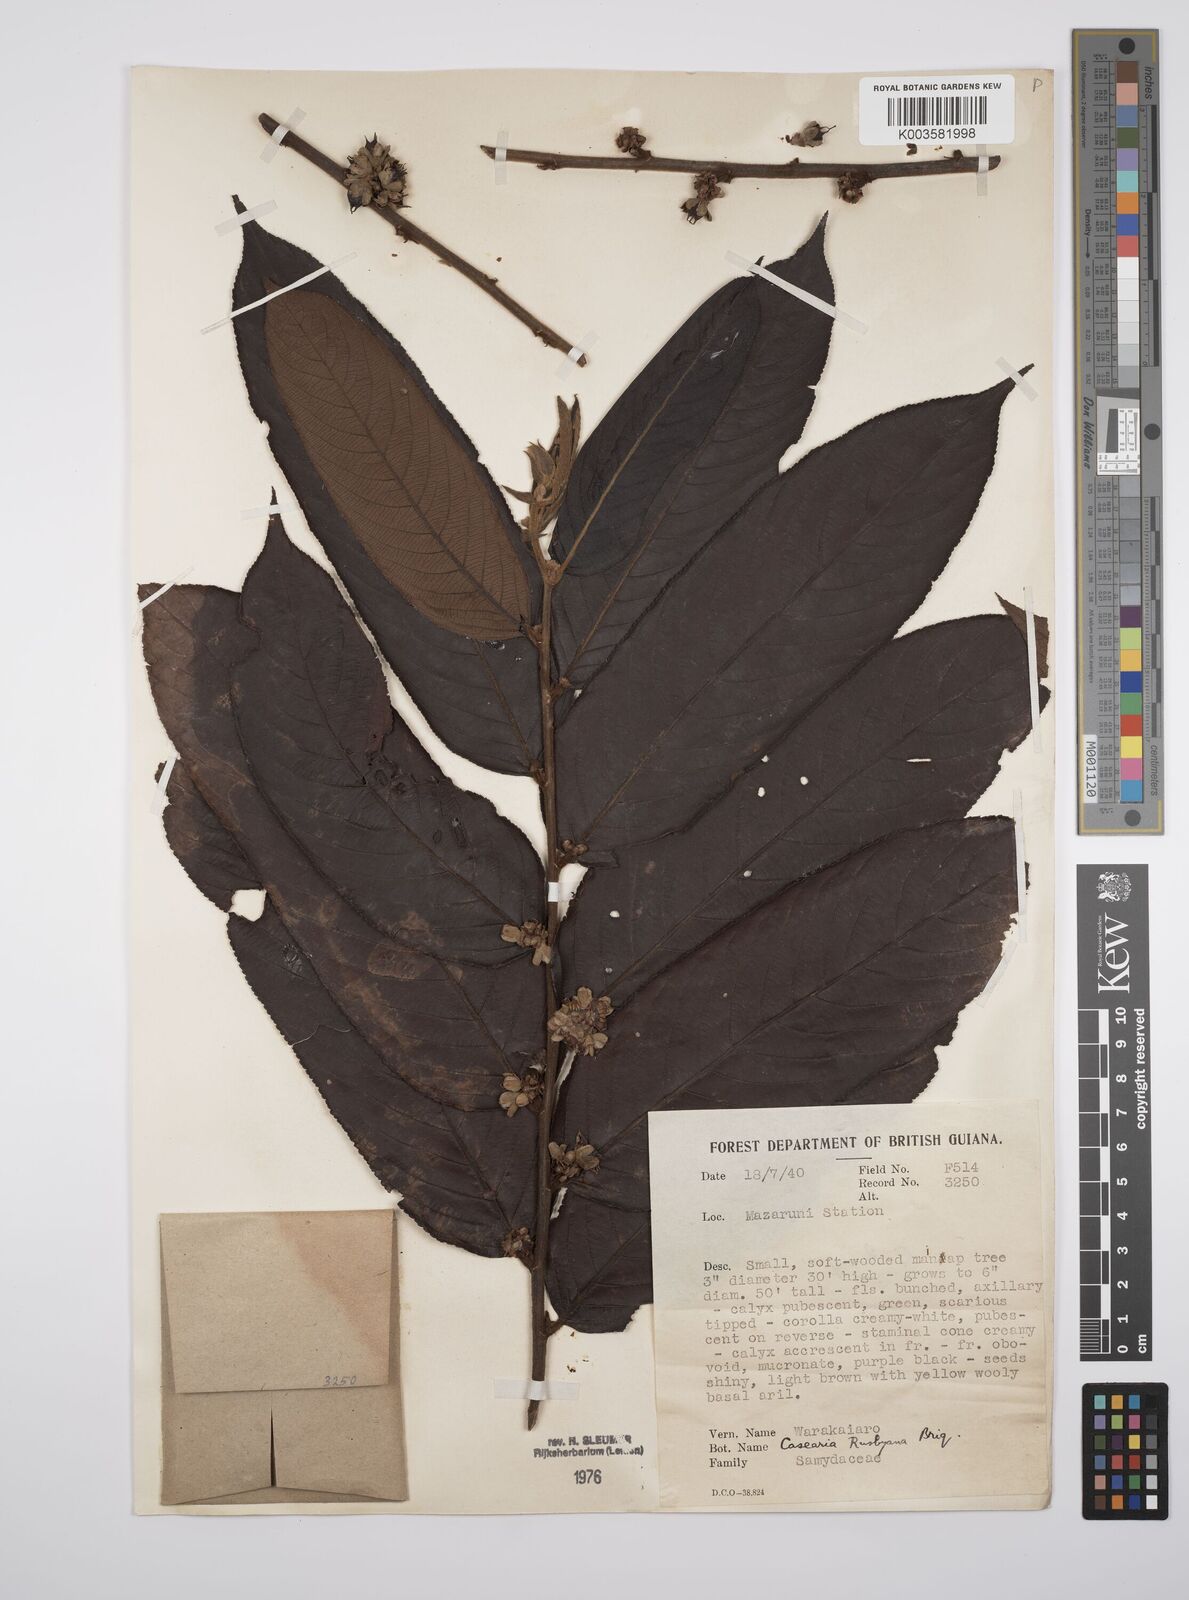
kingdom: Plantae
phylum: Tracheophyta
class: Magnoliopsida
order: Malpighiales
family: Salicaceae
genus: Casearia
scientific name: Casearia rusbyana
